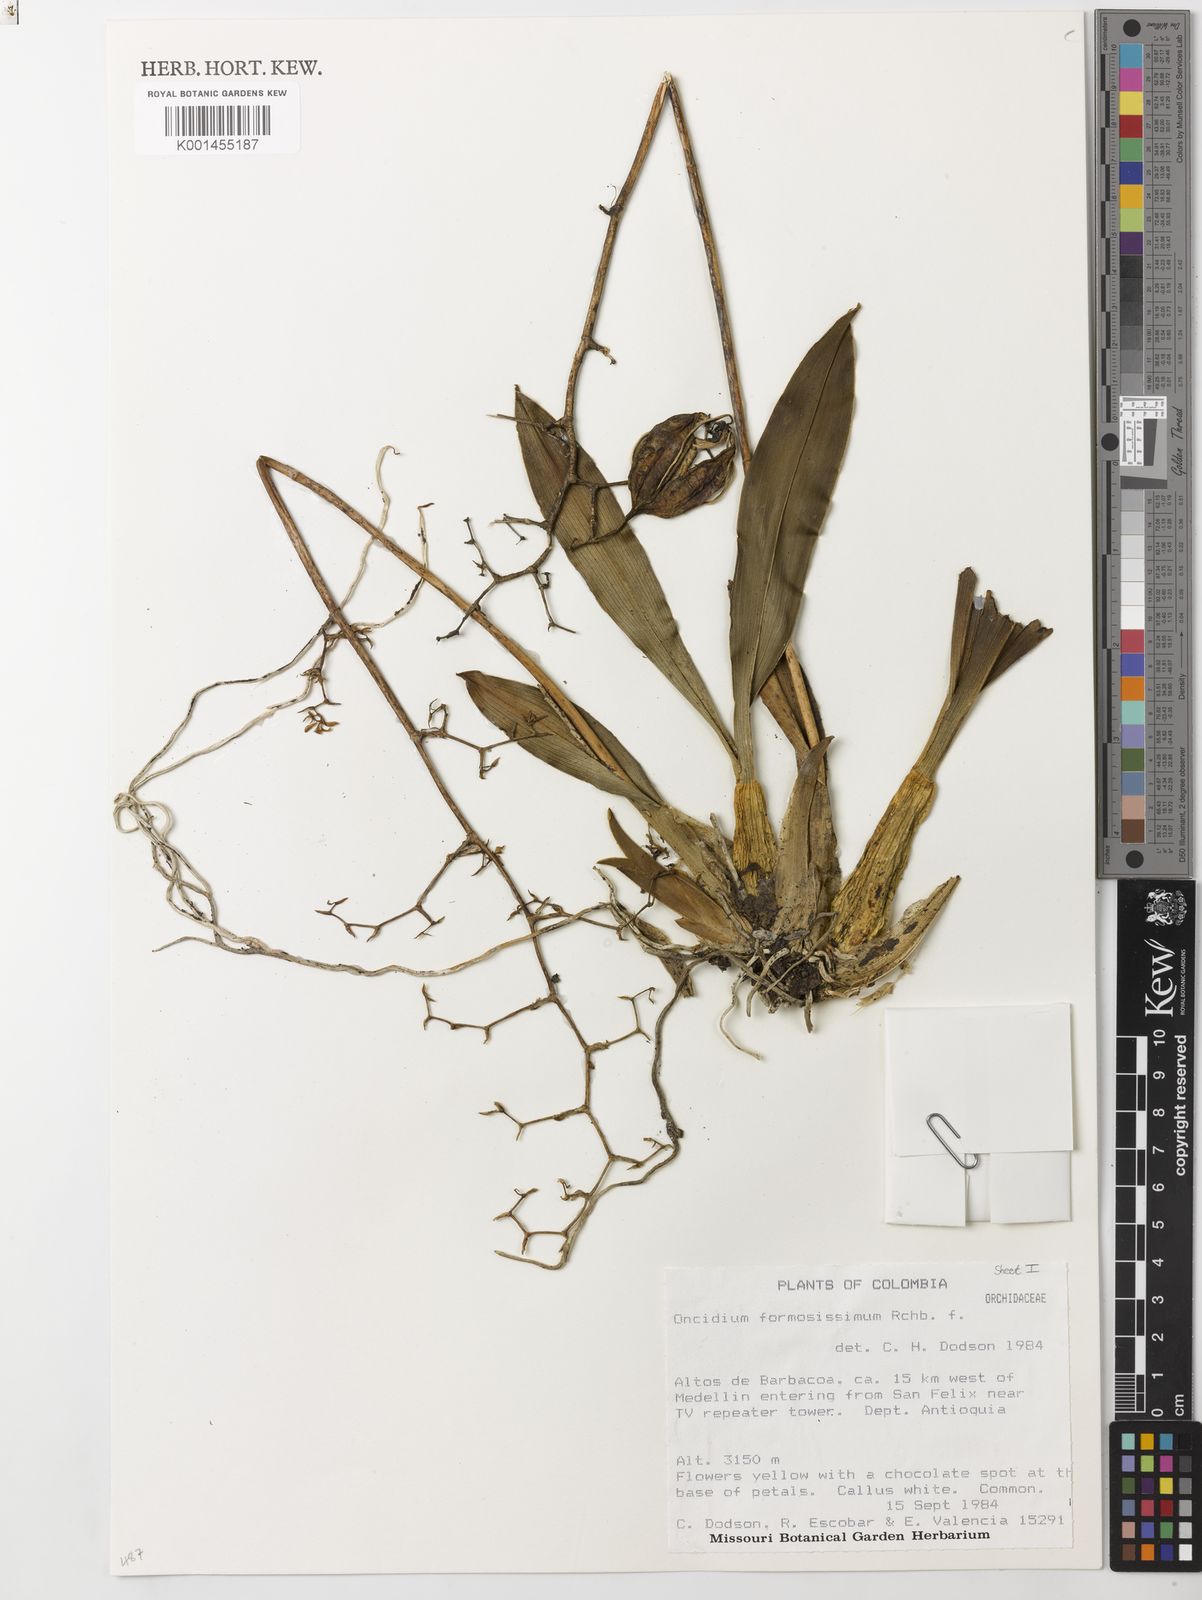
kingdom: Plantae
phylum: Tracheophyta
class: Liliopsida
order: Asparagales
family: Orchidaceae
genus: Oncidium
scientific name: Oncidium cultratum
